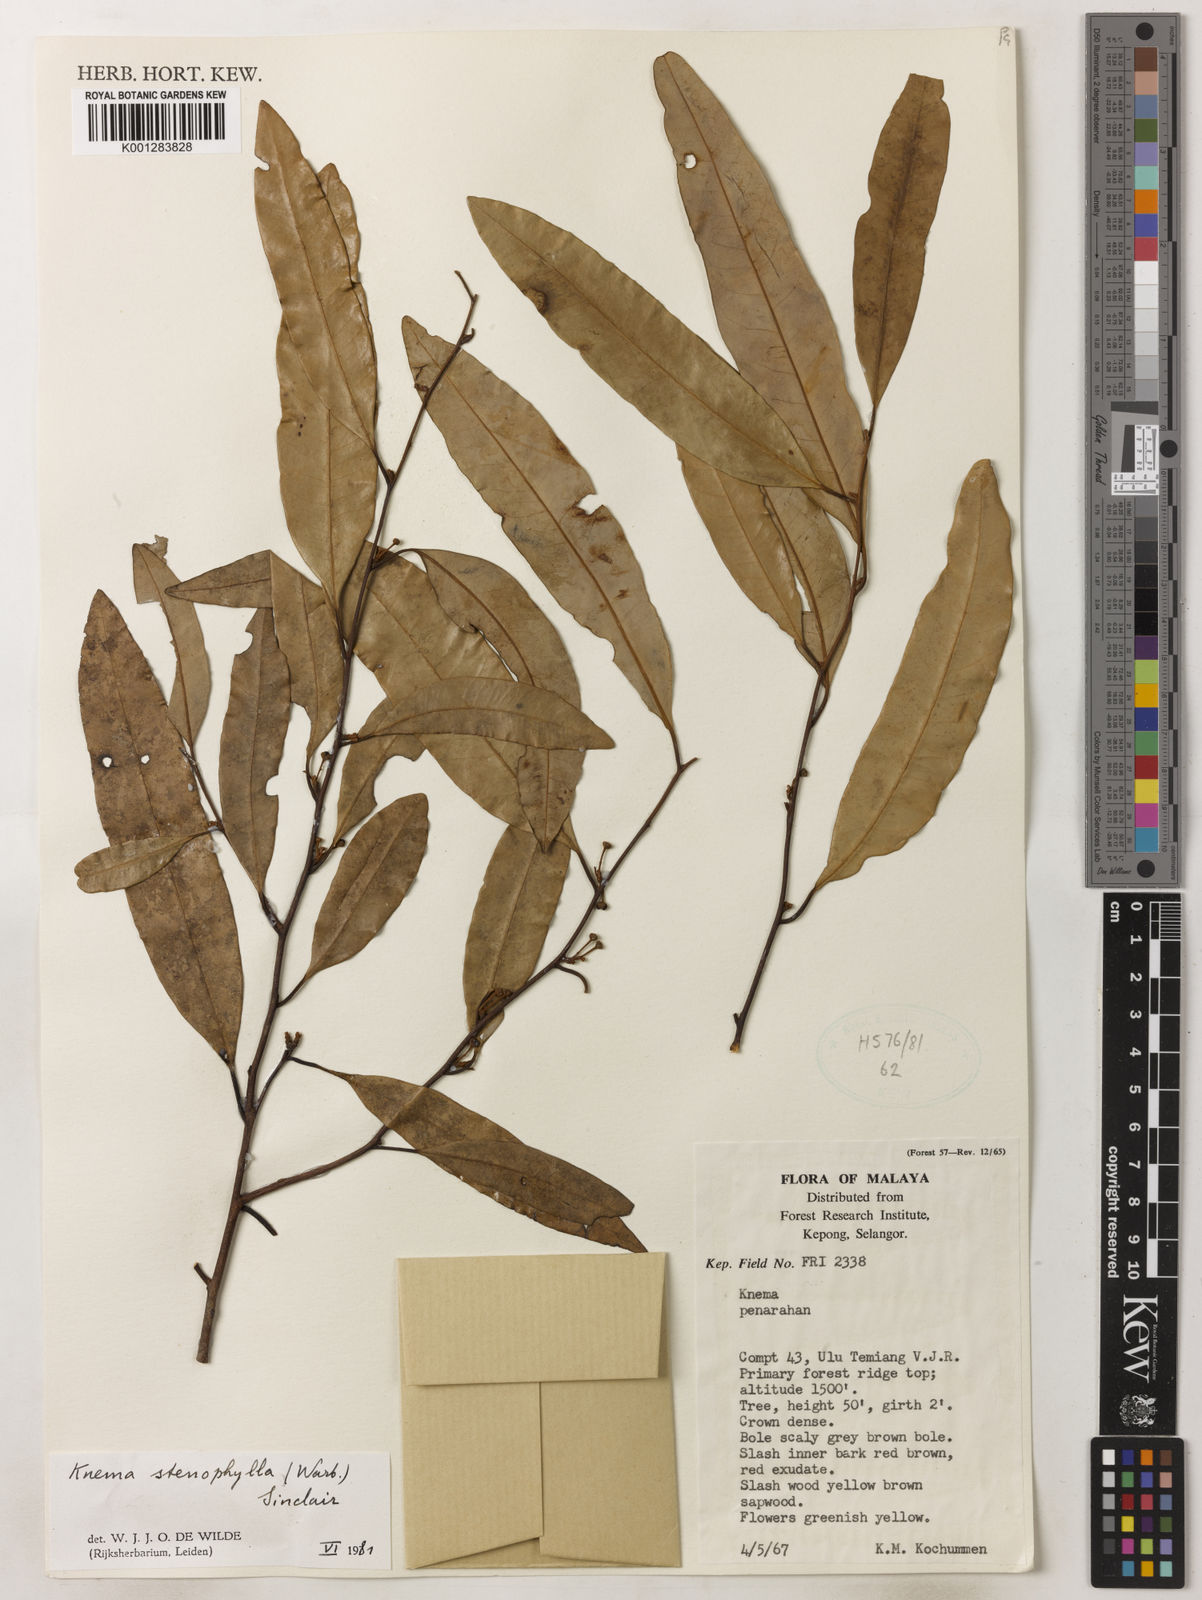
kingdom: Plantae
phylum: Tracheophyta
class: Magnoliopsida
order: Magnoliales
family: Myristicaceae
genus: Knema
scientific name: Knema stenophylla
